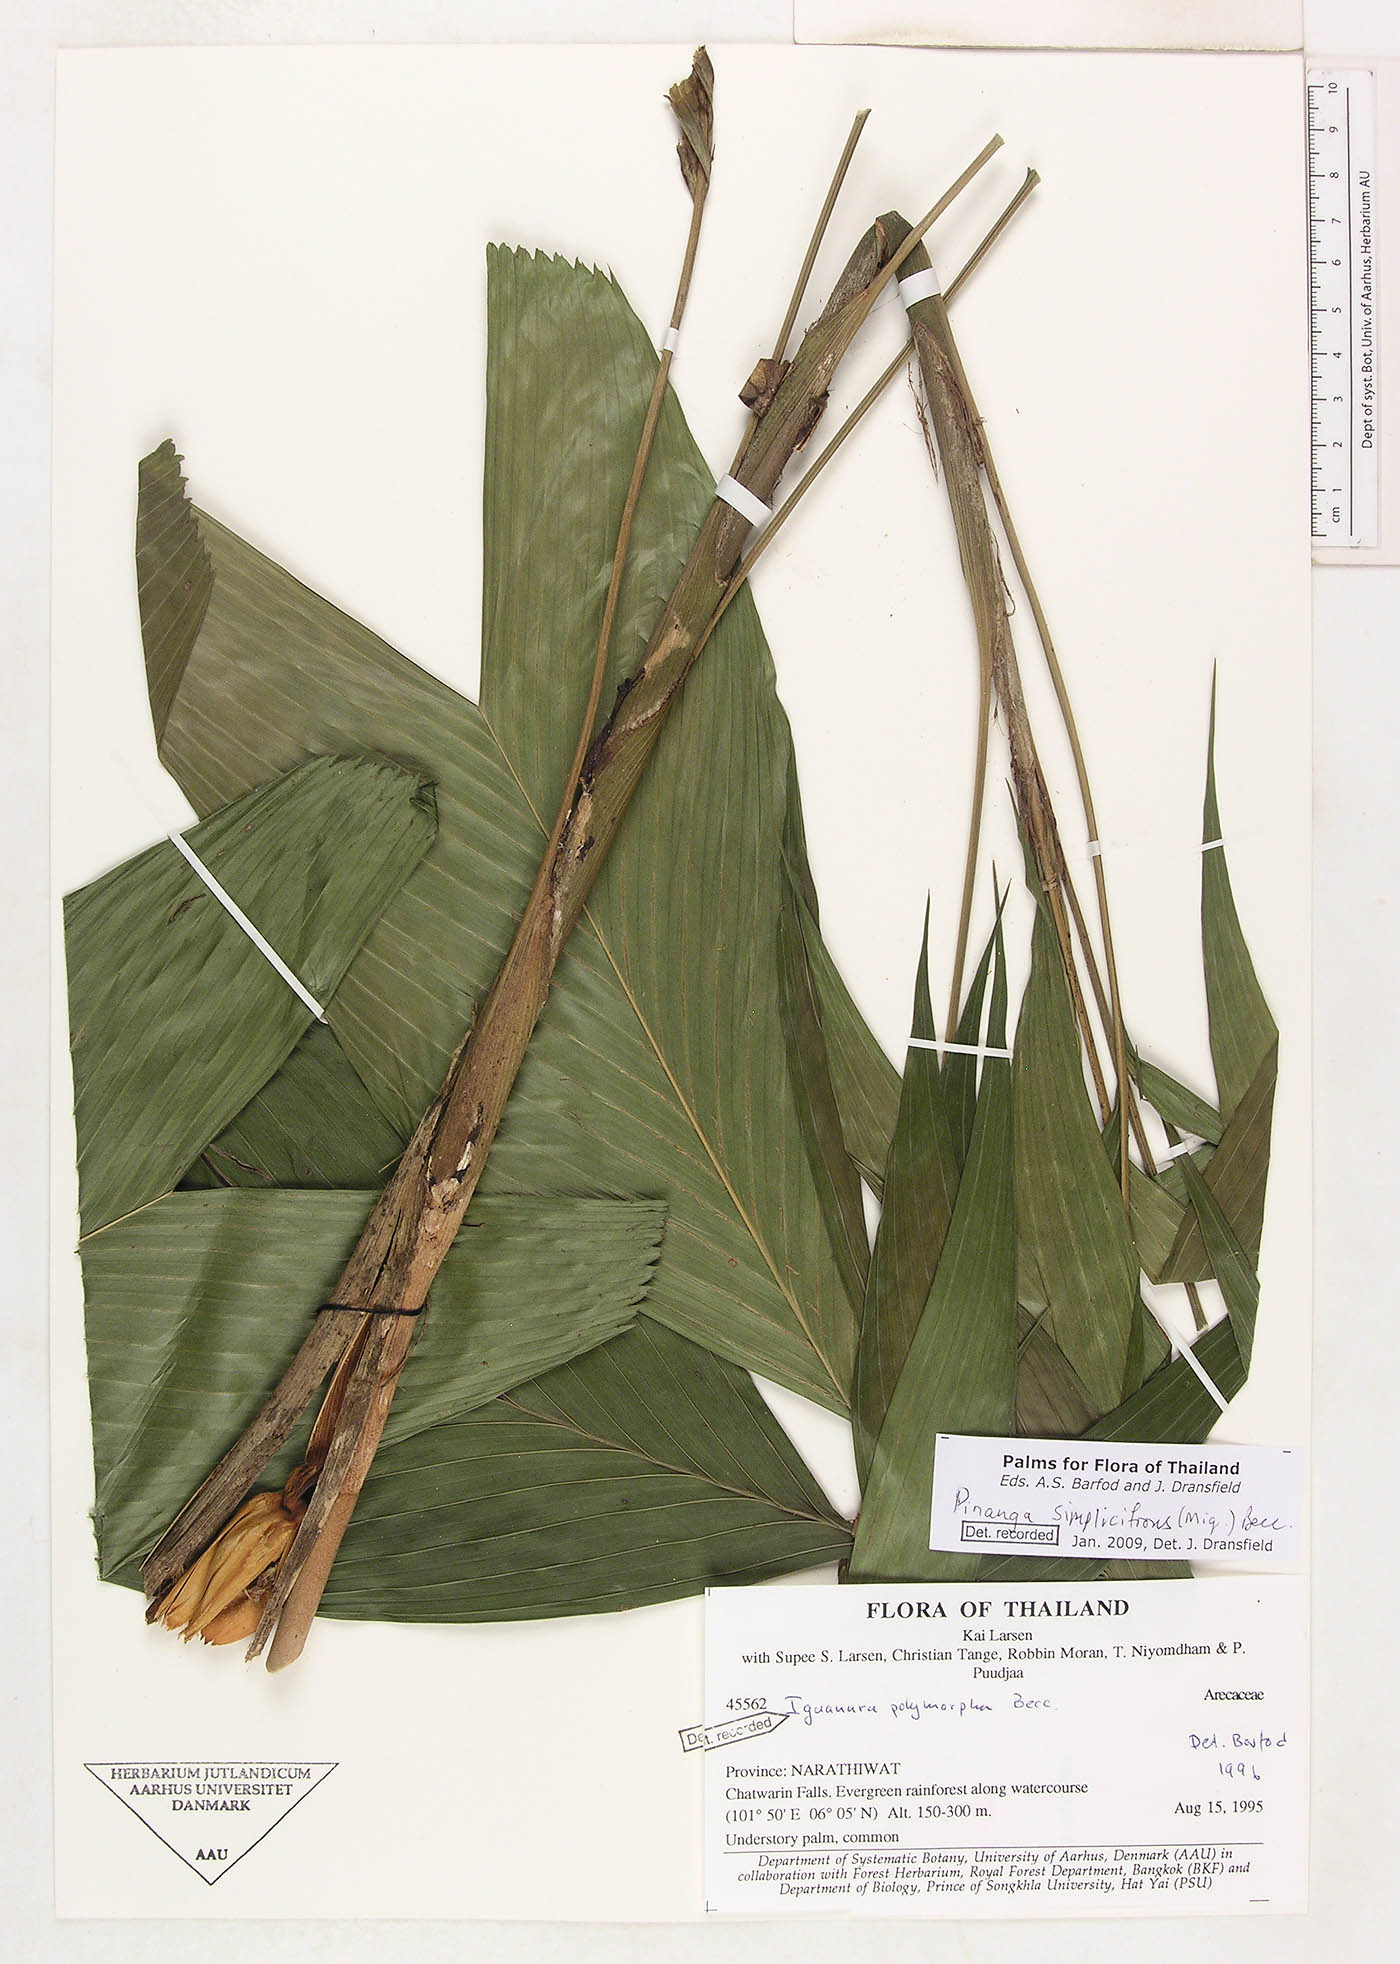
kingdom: Plantae
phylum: Tracheophyta
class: Liliopsida
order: Arecales
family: Arecaceae
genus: Pinanga
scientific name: Pinanga simplicifrons
